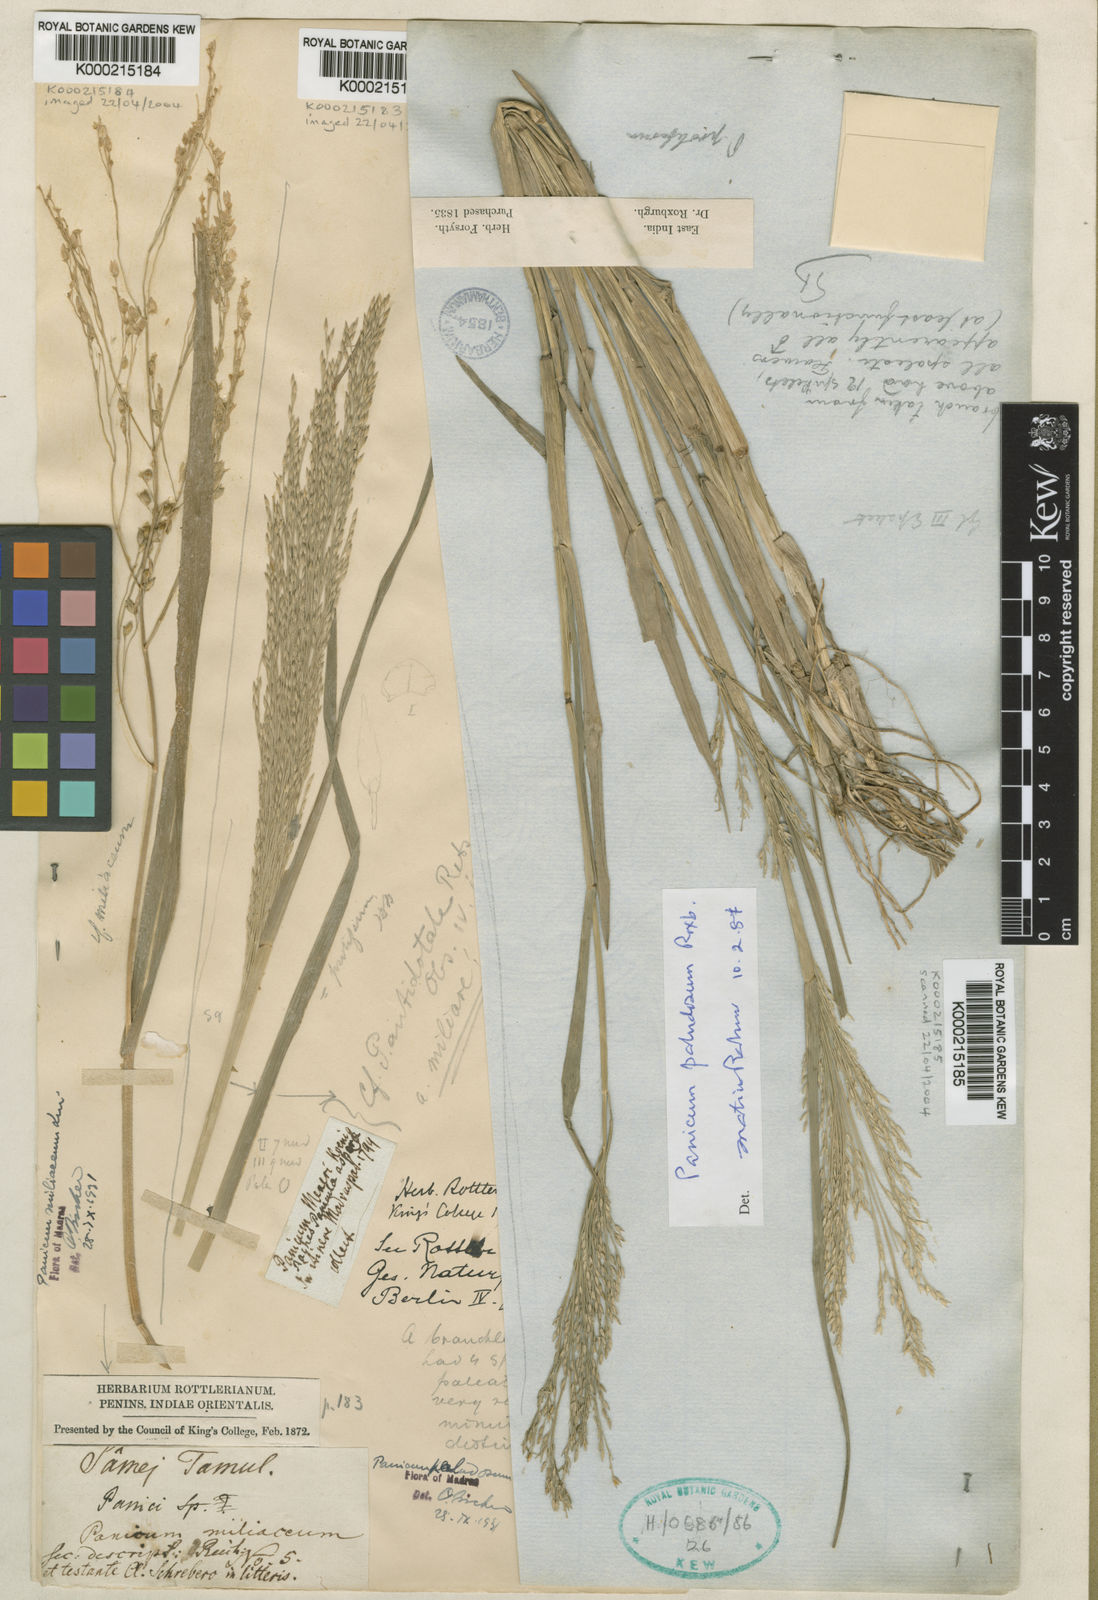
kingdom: Plantae
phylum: Tracheophyta
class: Liliopsida
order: Poales
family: Poaceae
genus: Louisiella
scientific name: Louisiella paludosa
